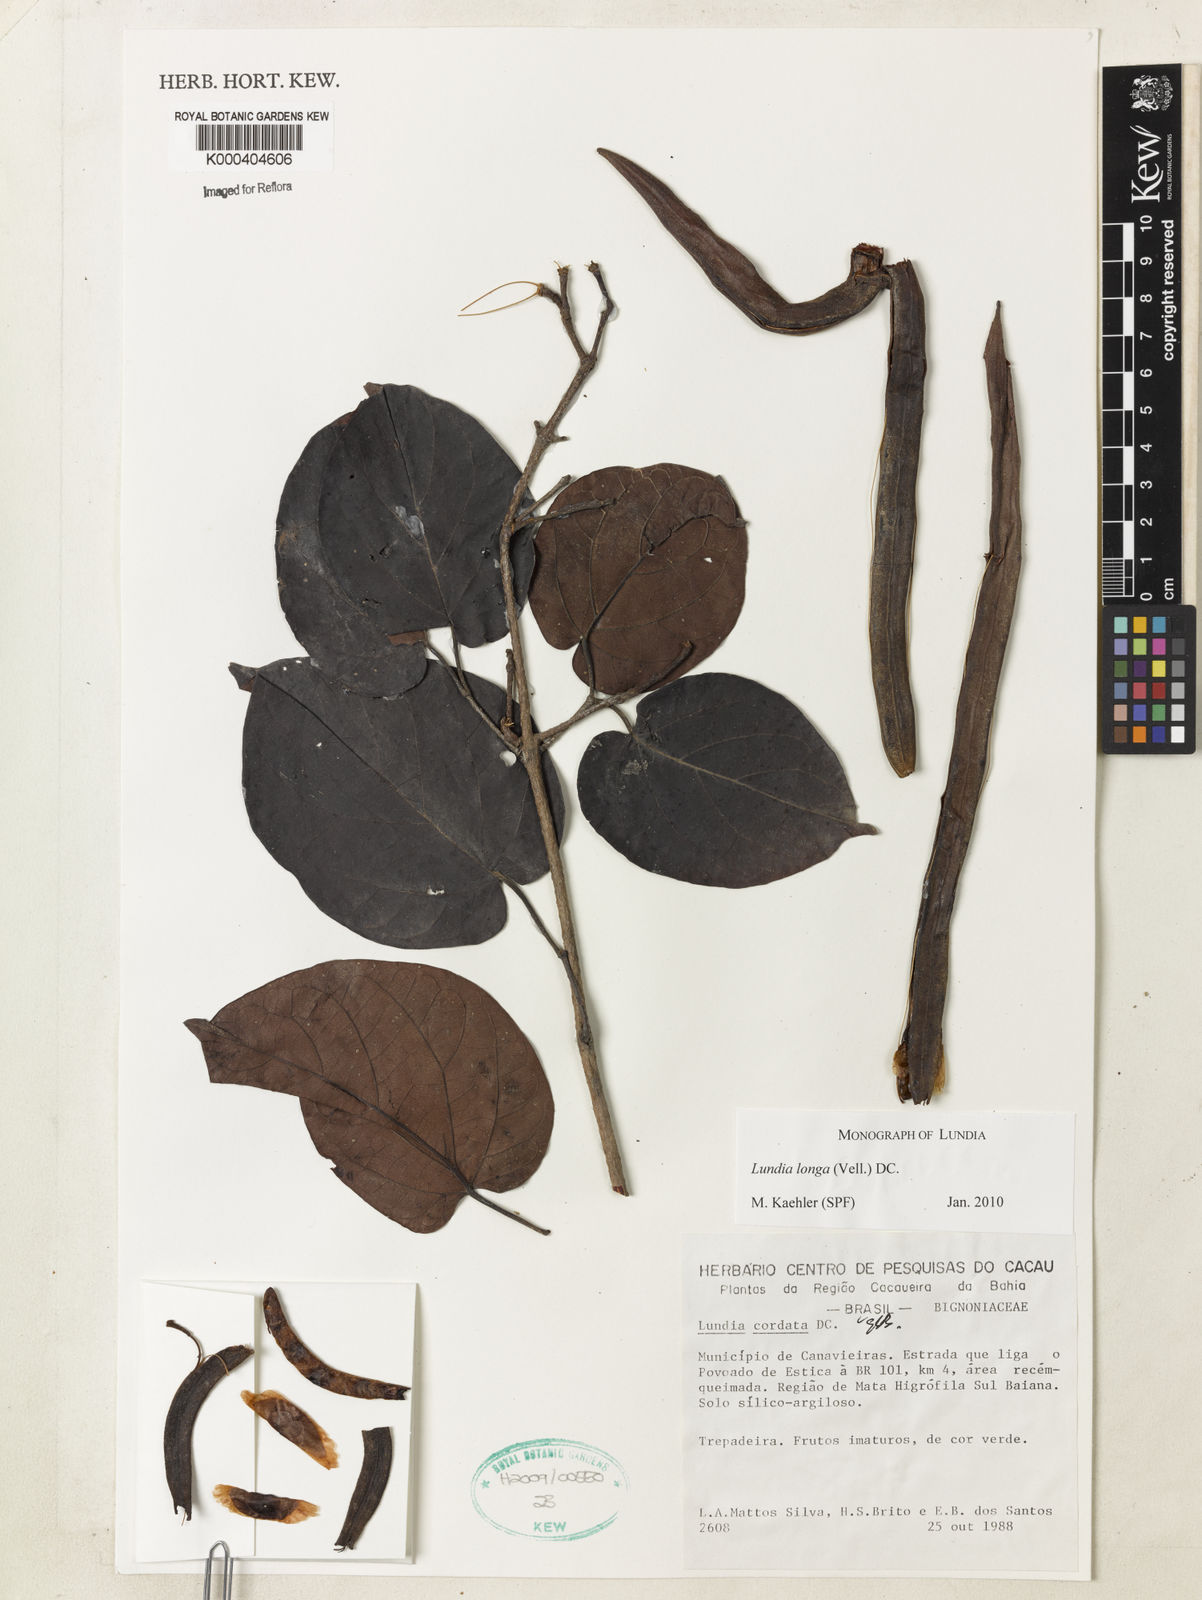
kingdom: Plantae
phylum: Tracheophyta
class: Magnoliopsida
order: Lamiales
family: Bignoniaceae
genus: Lundia
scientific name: Lundia longa
